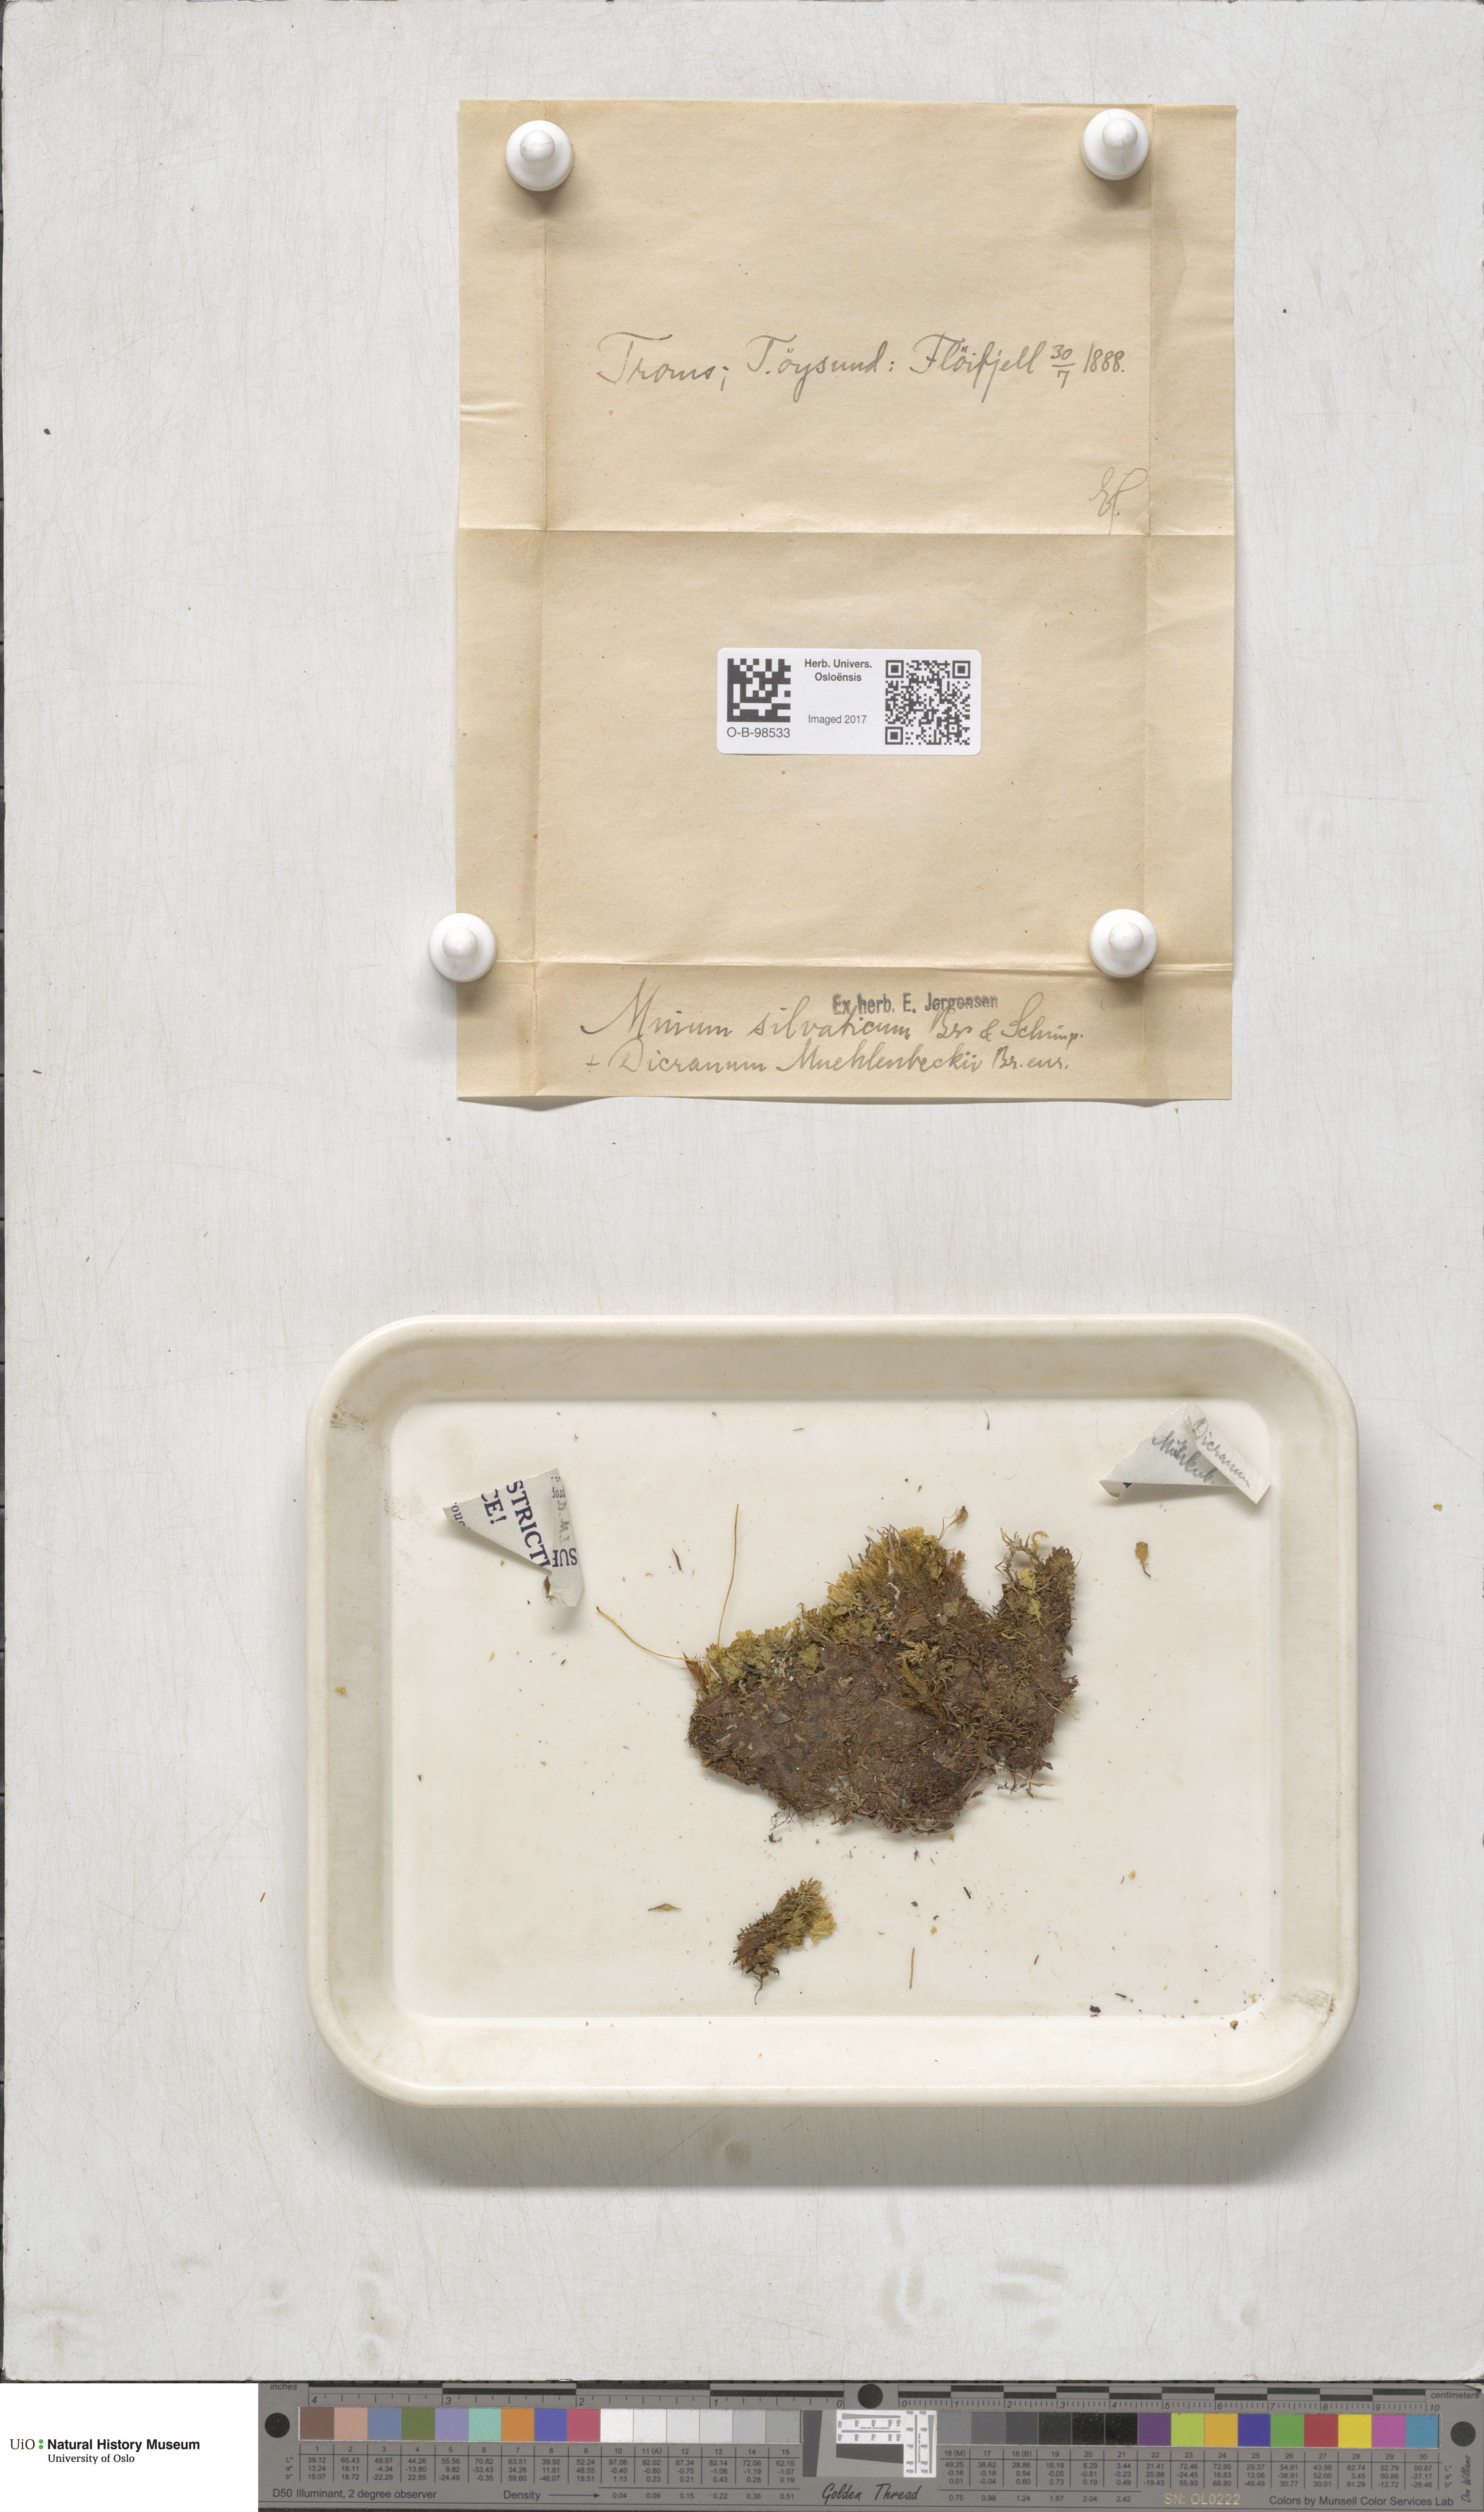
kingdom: Plantae
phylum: Bryophyta
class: Bryopsida
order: Bryales
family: Mniaceae
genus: Plagiomnium
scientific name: Plagiomnium cuspidatum
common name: Woodsy leafy moss
